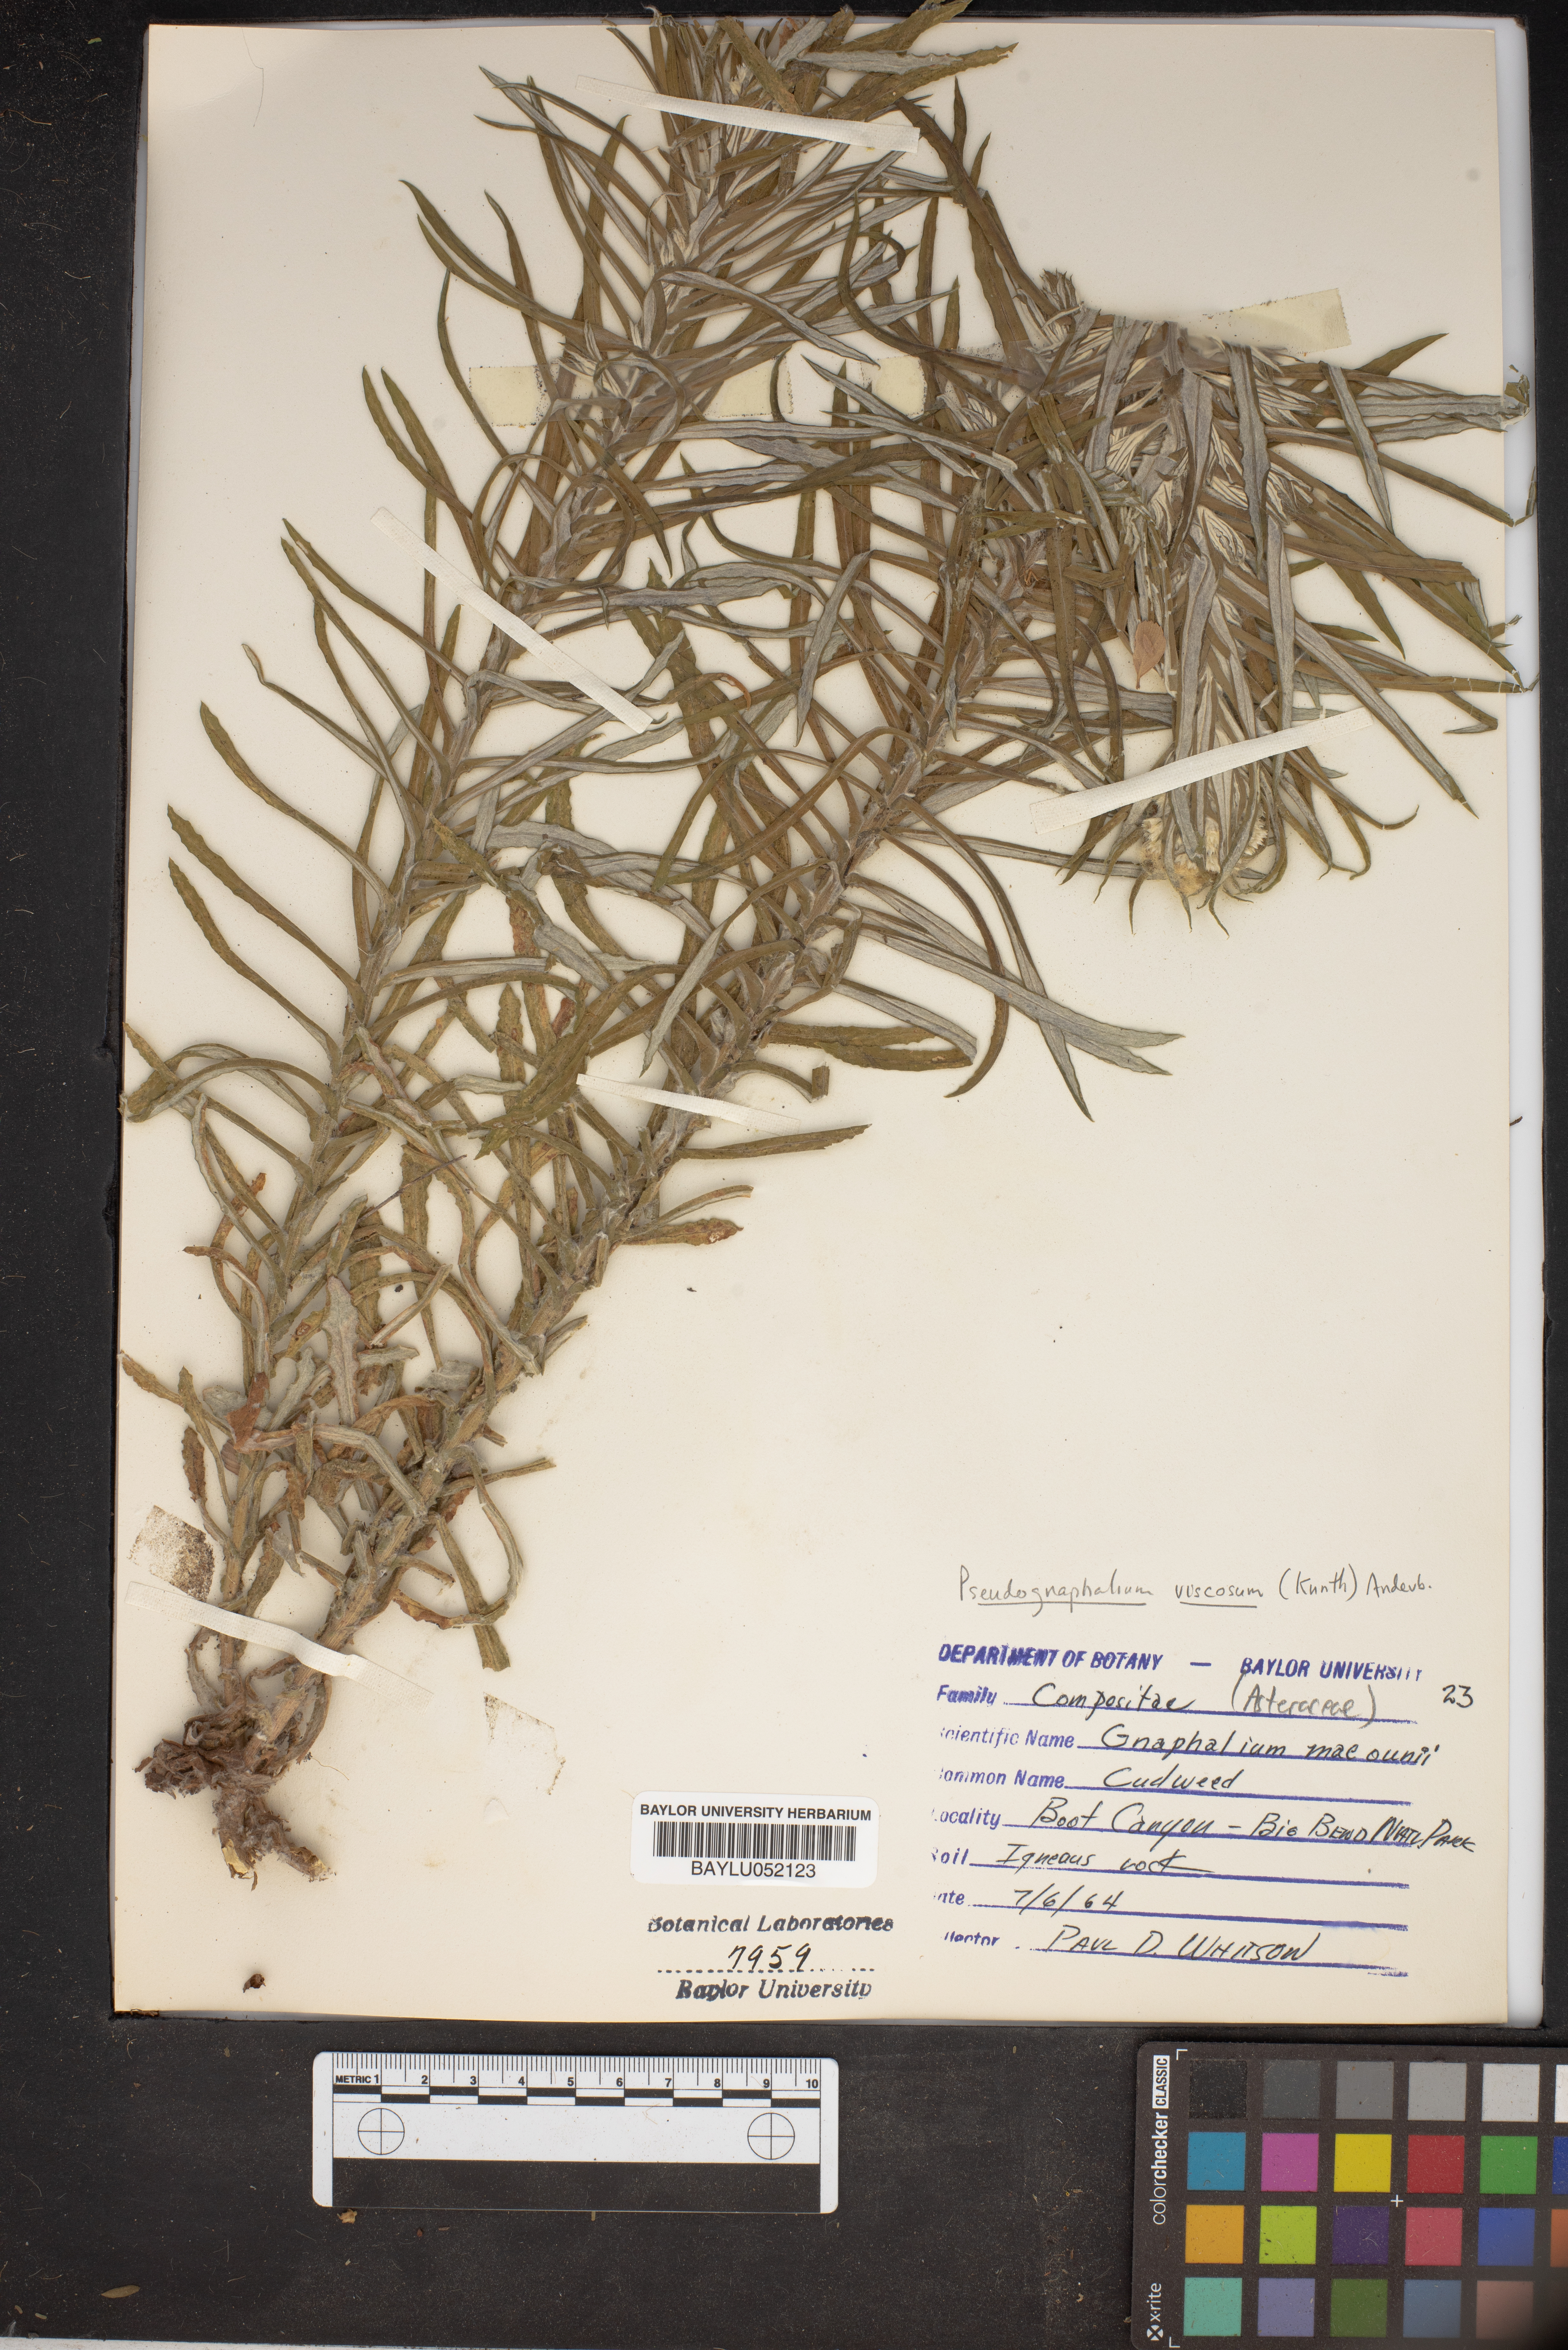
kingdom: Plantae
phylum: Tracheophyta
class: Magnoliopsida
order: Asterales
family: Asteraceae
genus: Pseudognaphalium
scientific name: Pseudognaphalium macounii
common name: Clammy cudweed
